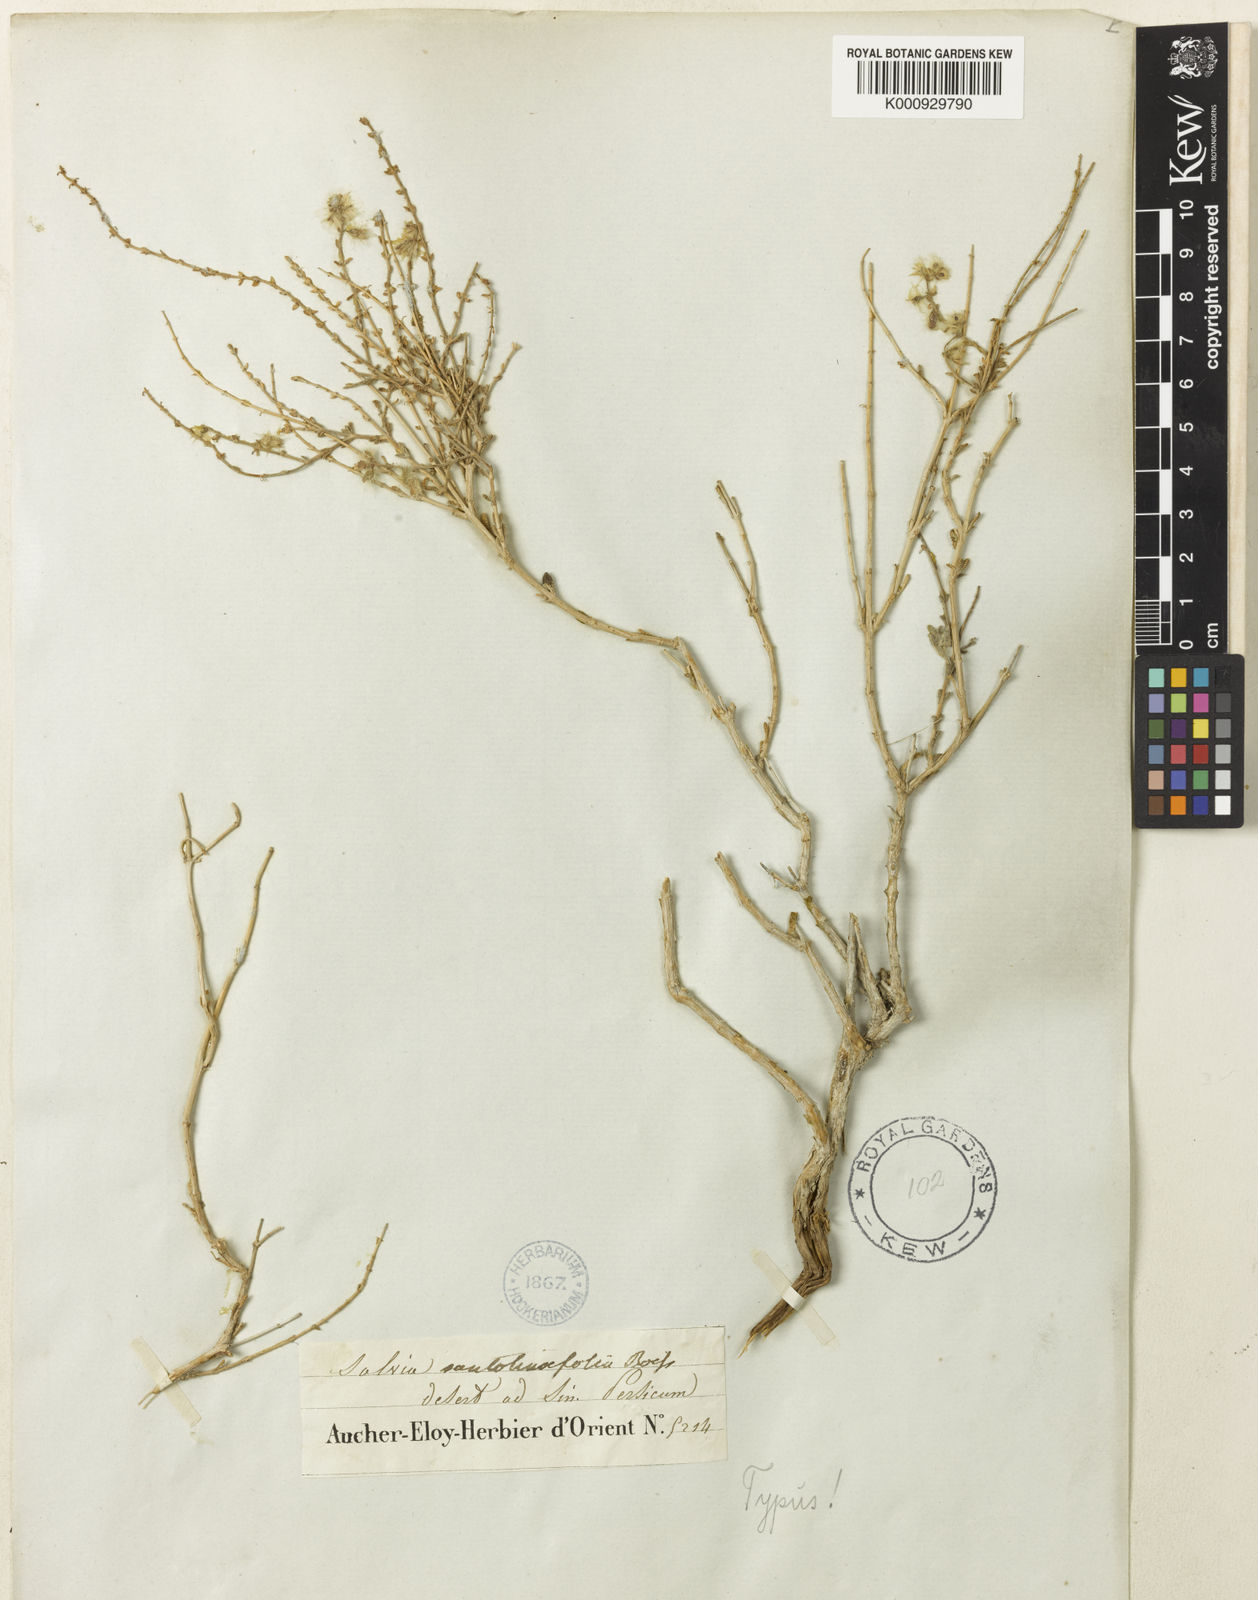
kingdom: Plantae
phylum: Tracheophyta
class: Magnoliopsida
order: Lamiales
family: Lamiaceae
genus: Salvia
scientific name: Salvia santolinifolia
